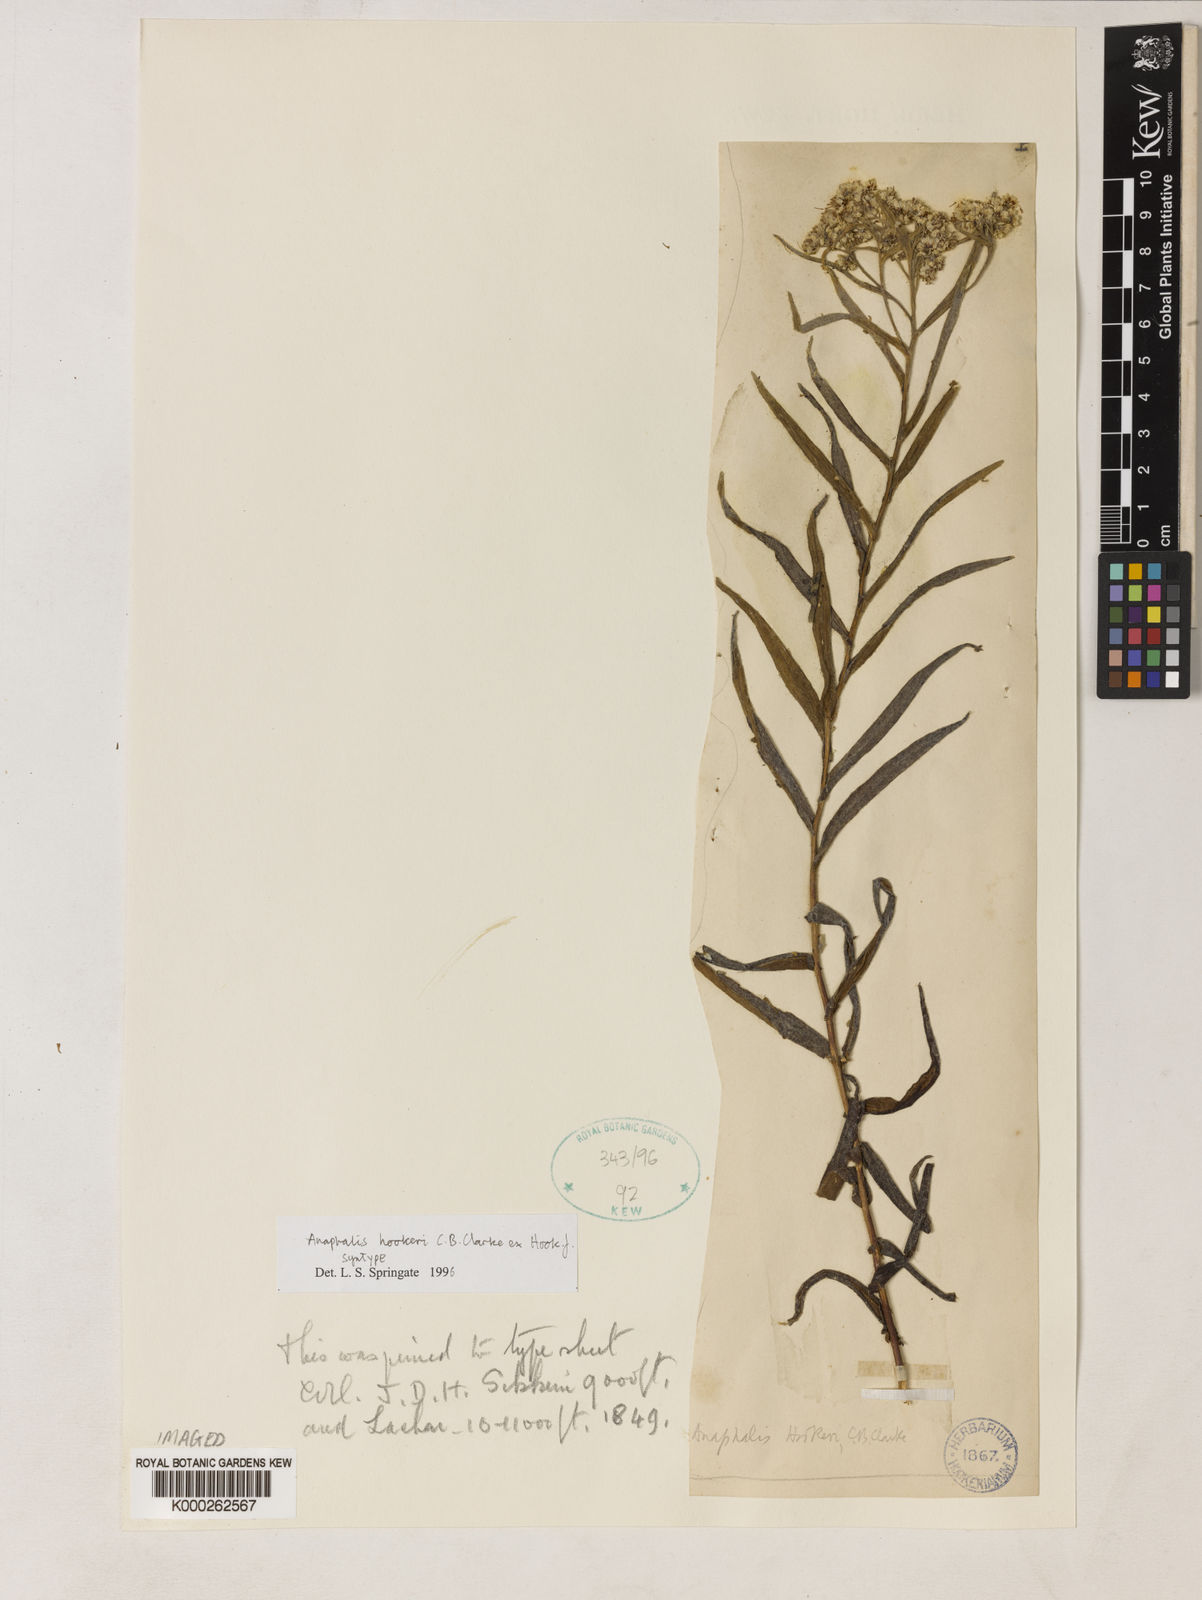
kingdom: Plantae
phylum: Tracheophyta
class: Magnoliopsida
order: Asterales
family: Asteraceae
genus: Anaphalis
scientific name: Anaphalis
